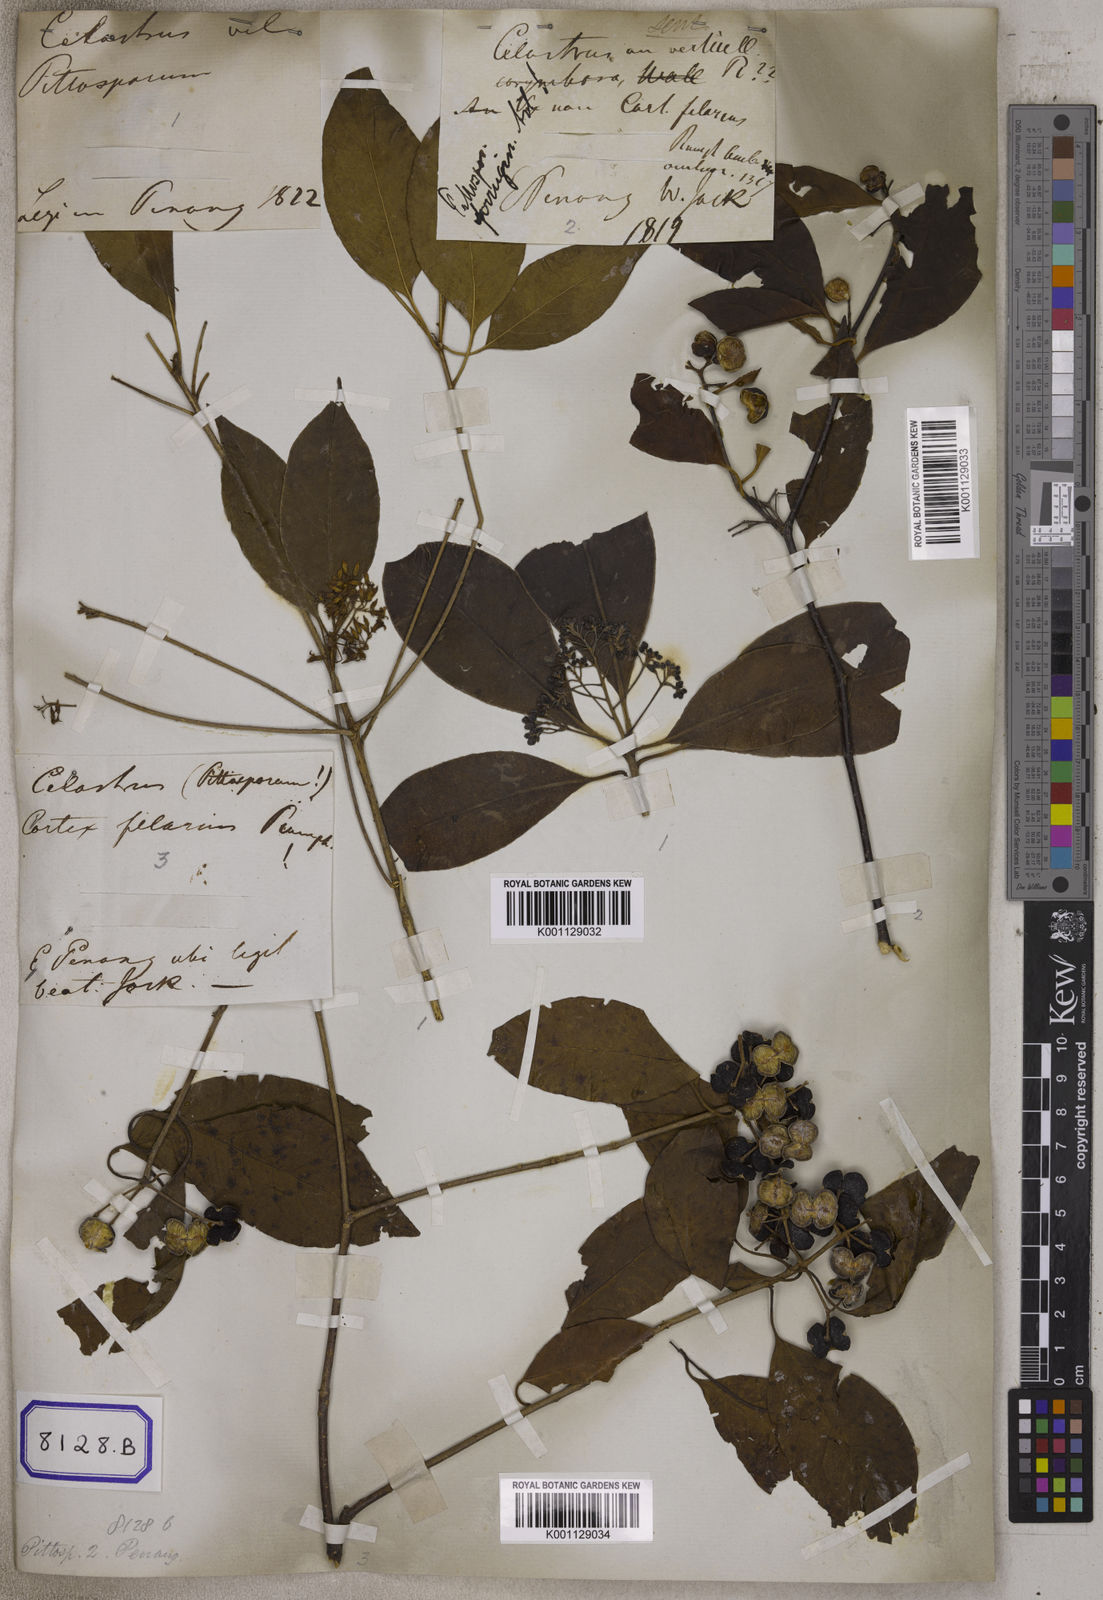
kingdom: Plantae
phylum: Tracheophyta
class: Magnoliopsida
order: Apiales
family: Pittosporaceae
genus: Pittosporum
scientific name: Pittosporum ferrugineum
